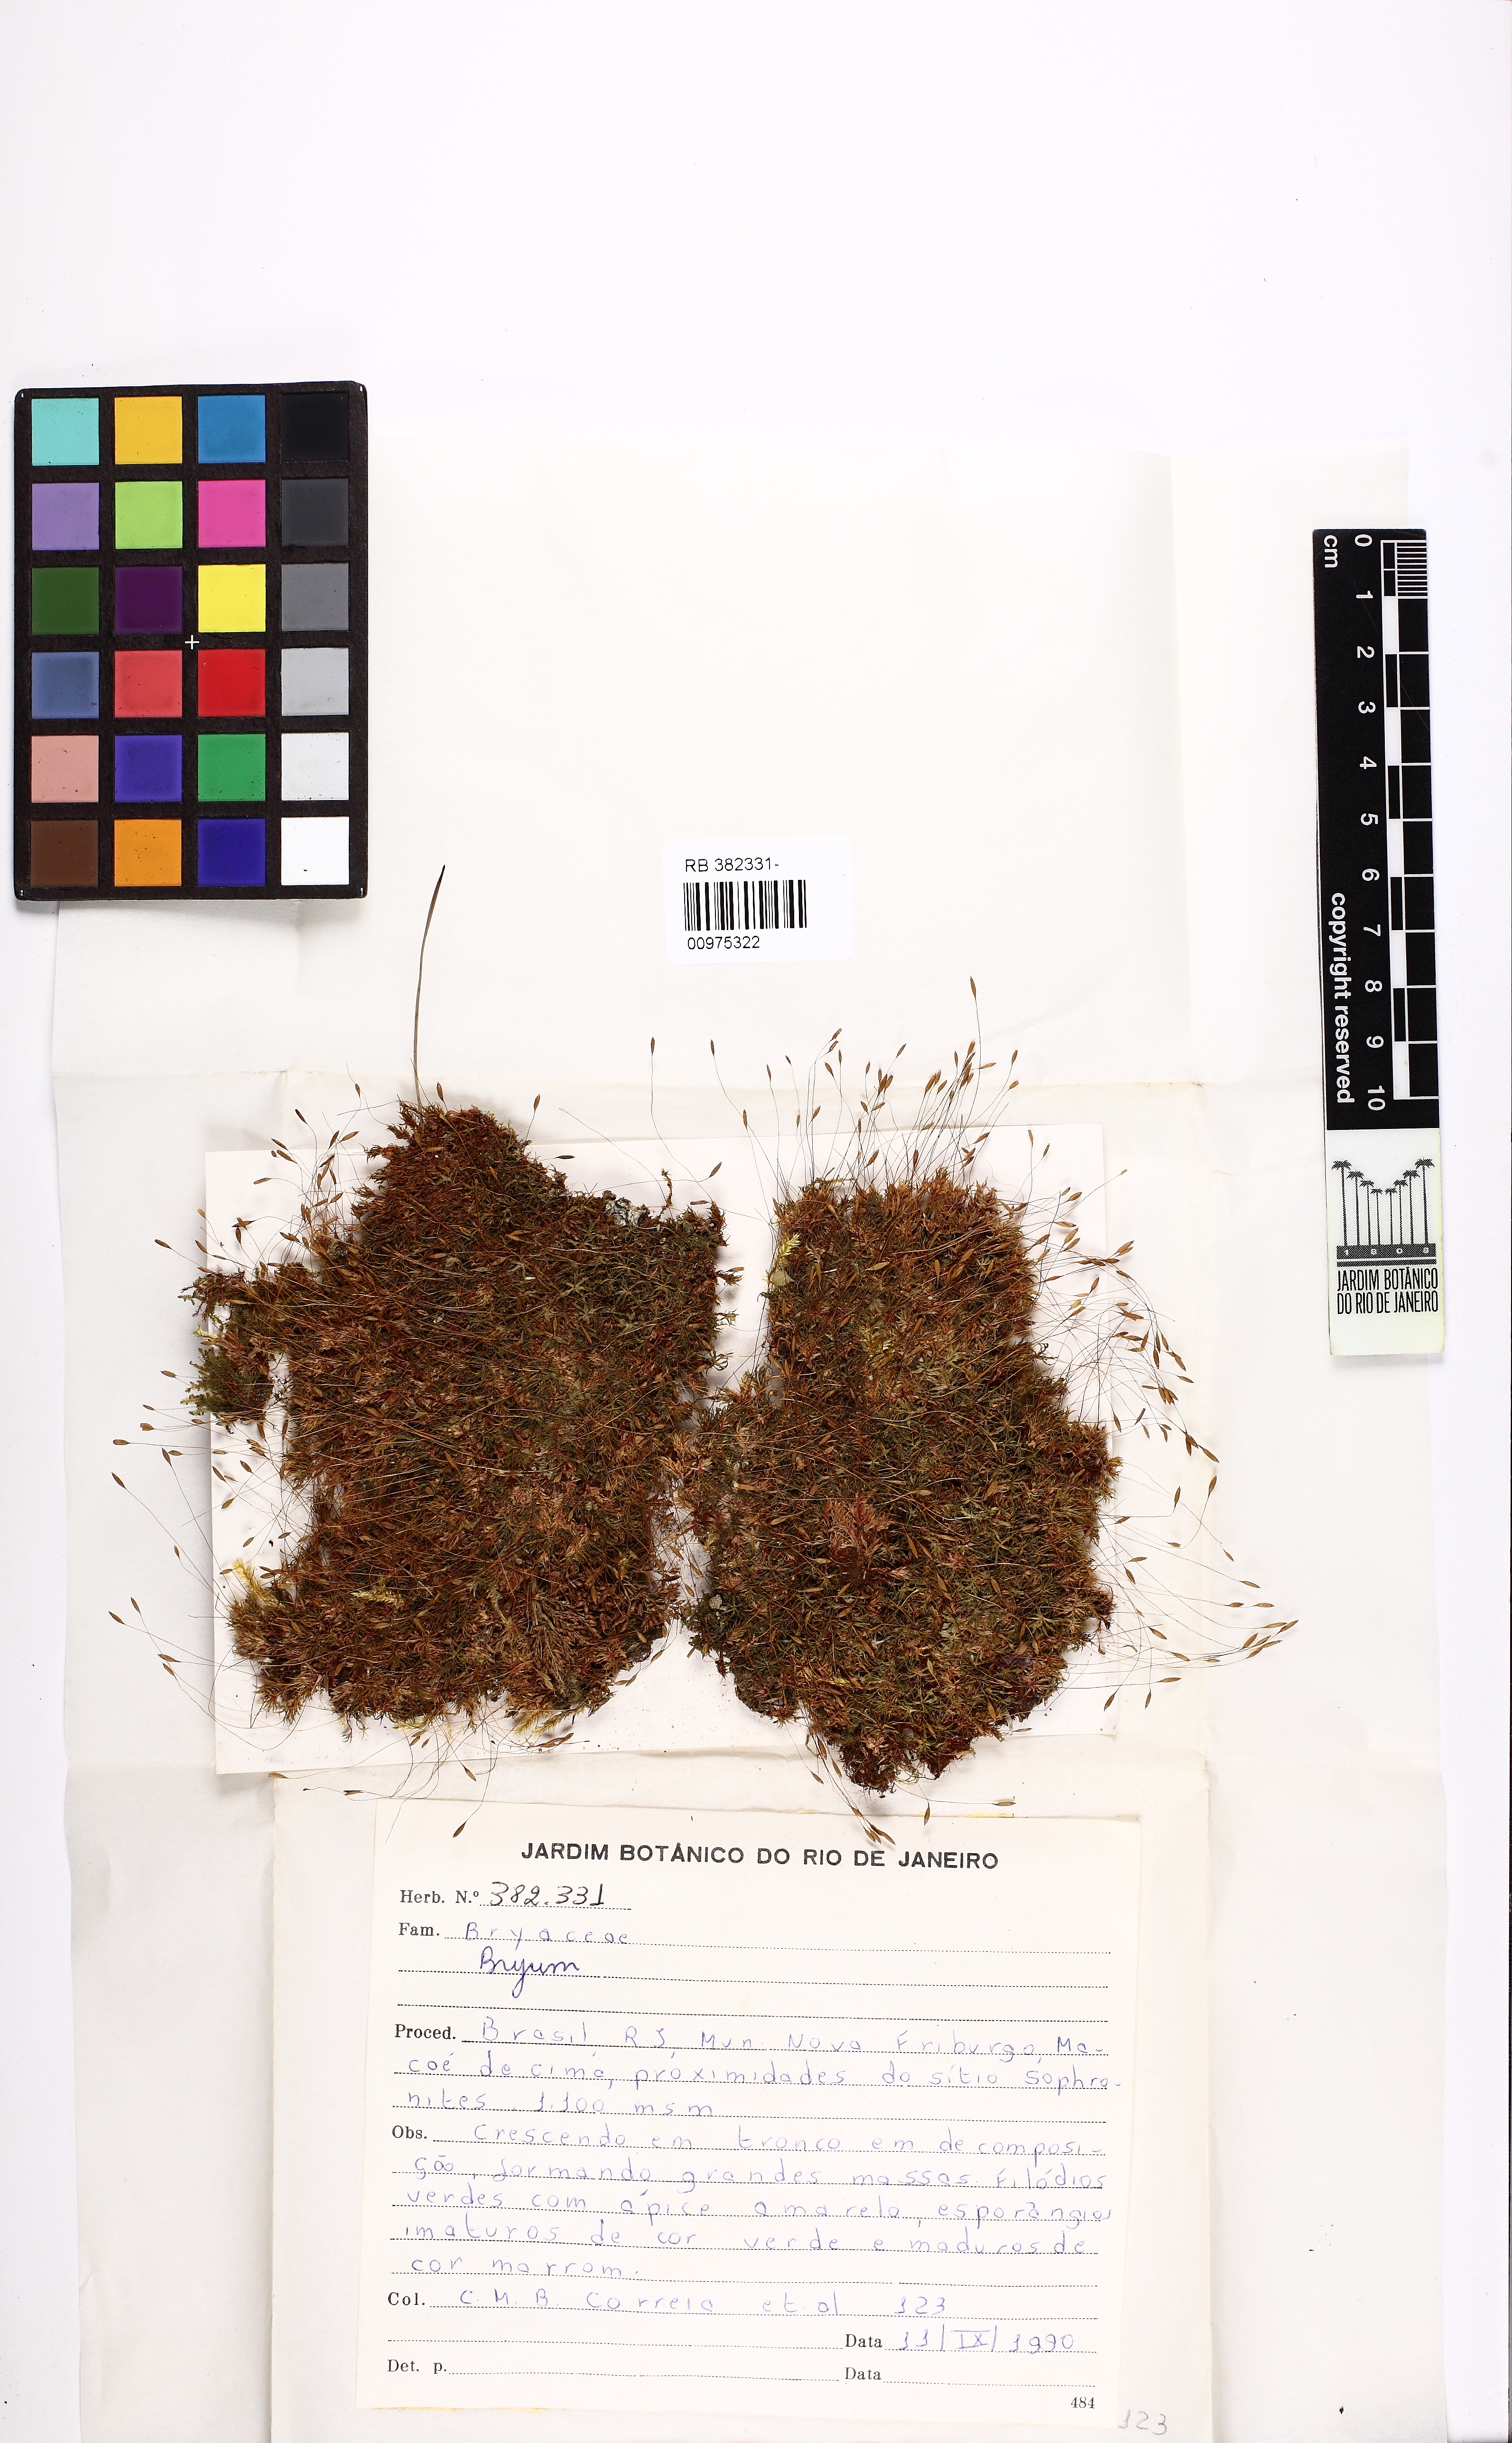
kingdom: Plantae
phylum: Bryophyta
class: Bryopsida
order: Bryales
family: Bryaceae
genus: Bryum
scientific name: Bryum
